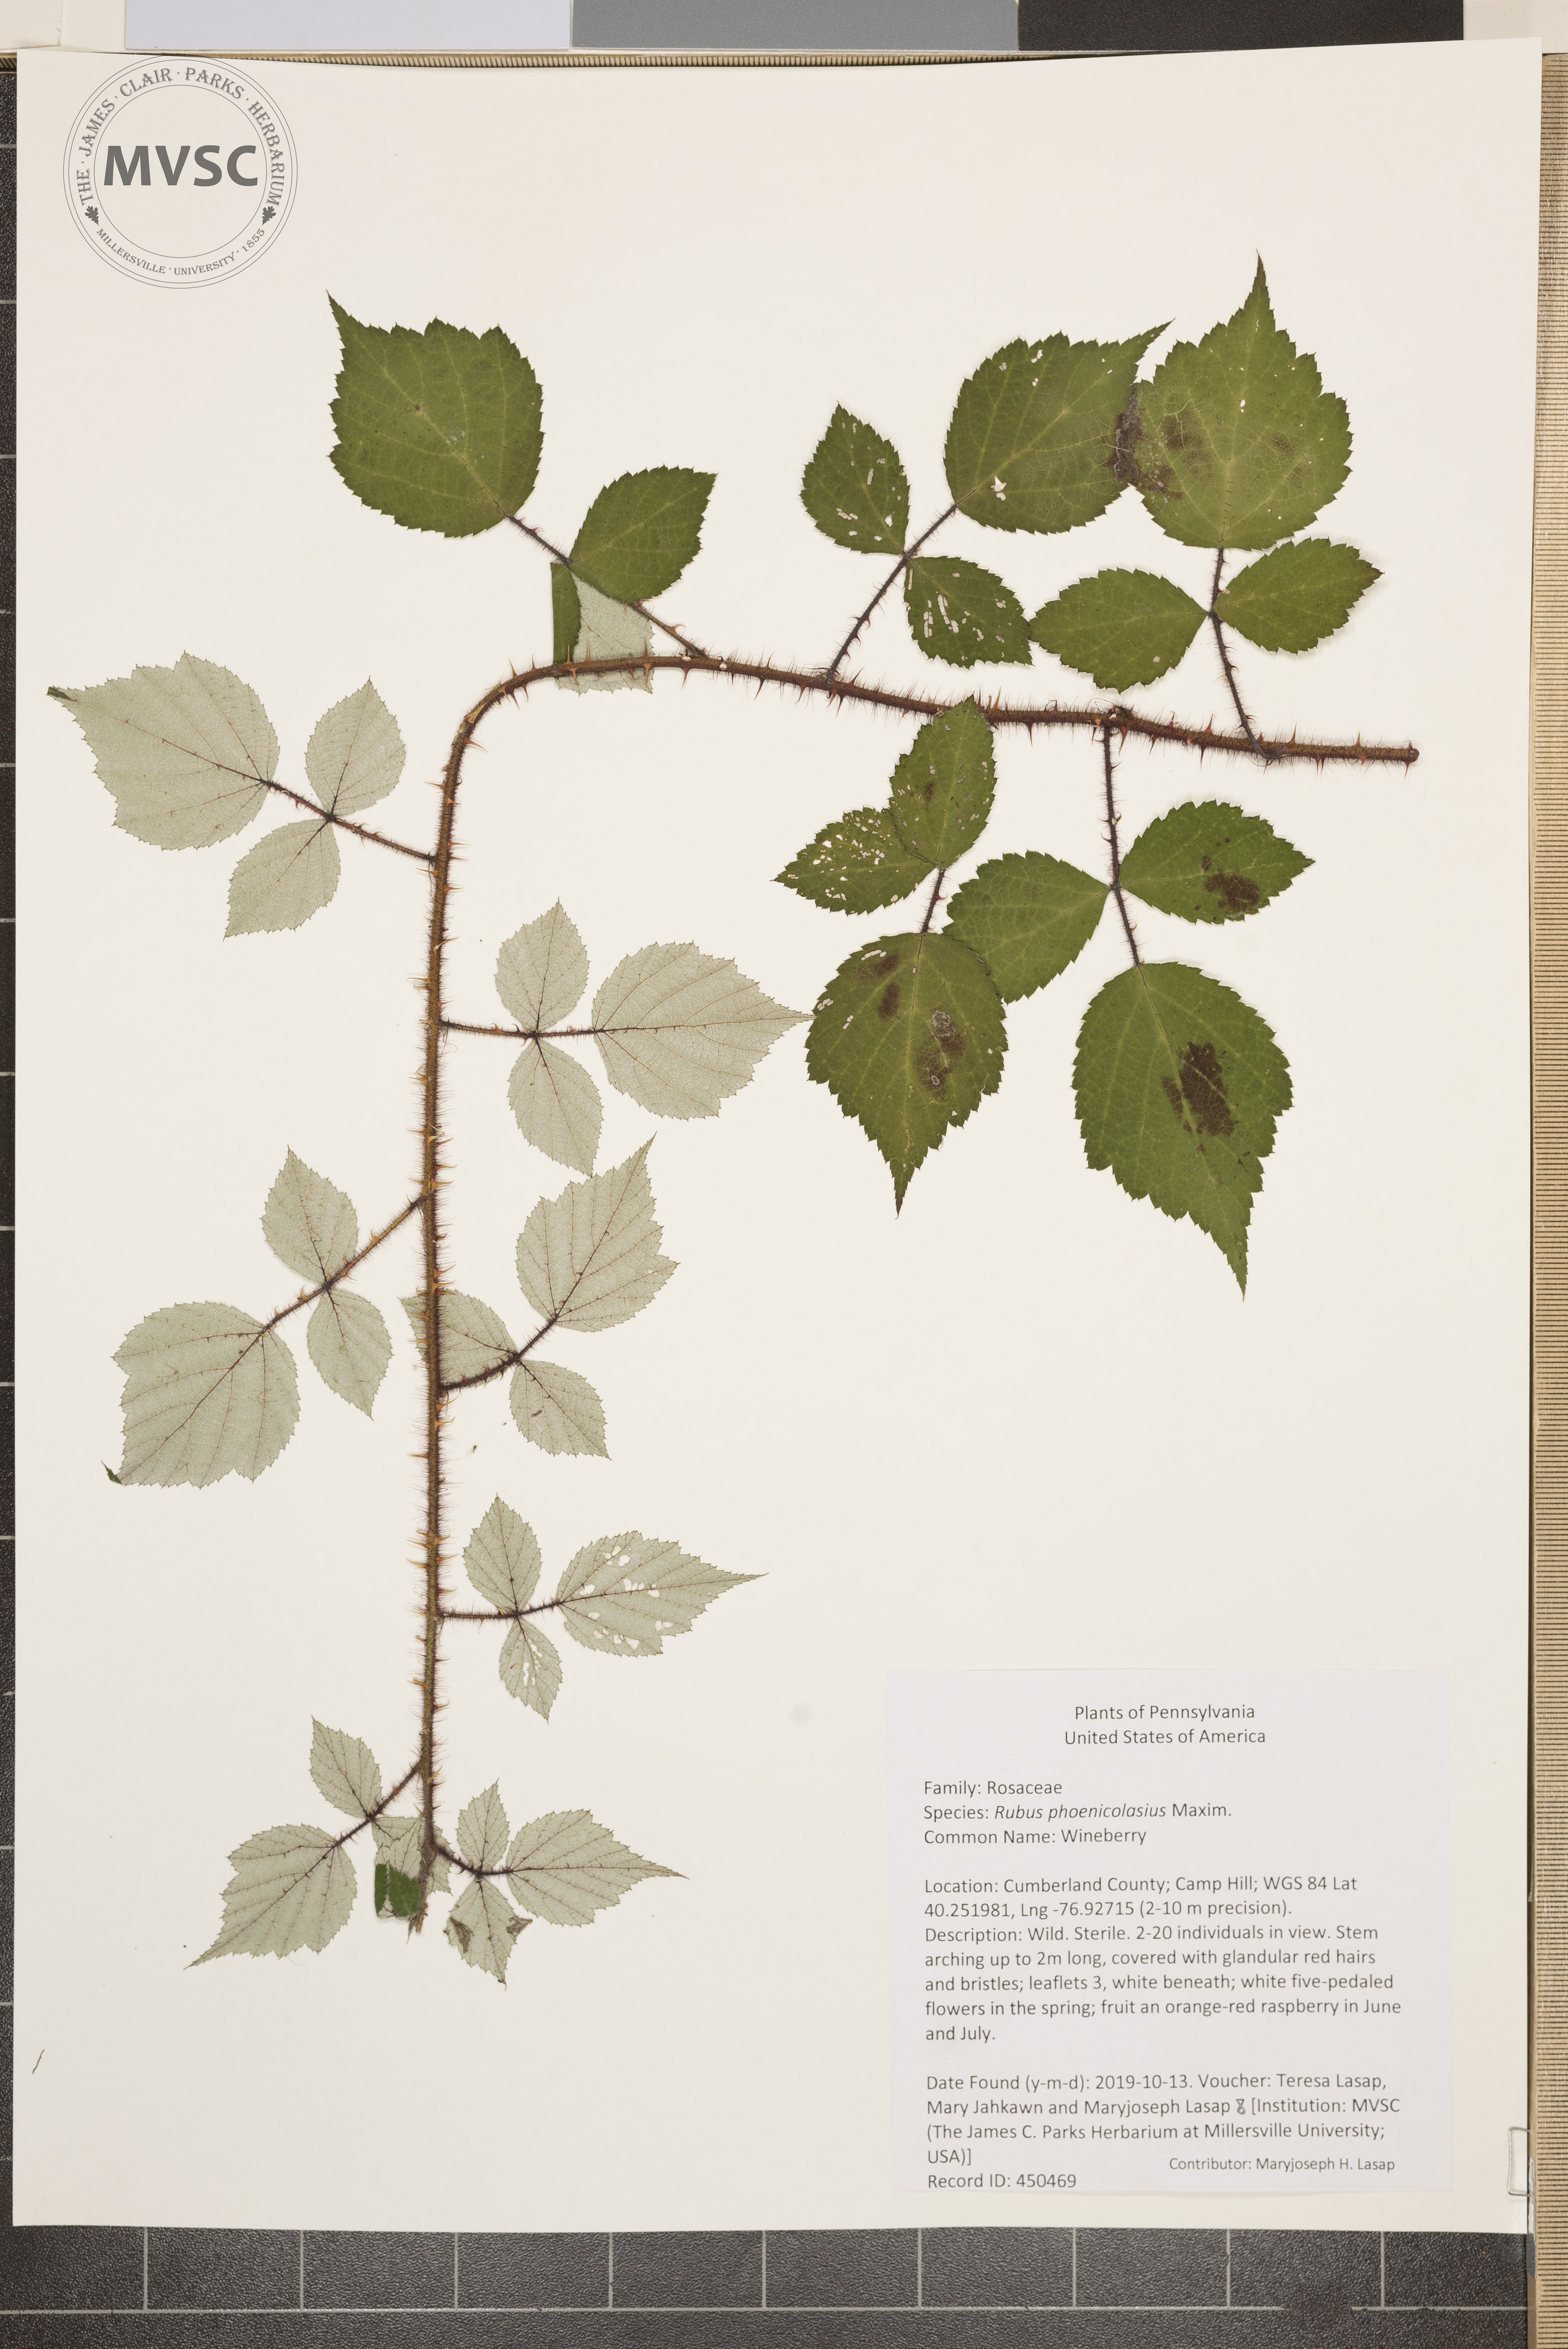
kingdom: Plantae
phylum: Tracheophyta
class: Magnoliopsida
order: Rosales
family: Rosaceae
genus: Rubus
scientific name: Rubus phoenicolasius
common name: Wineberry
